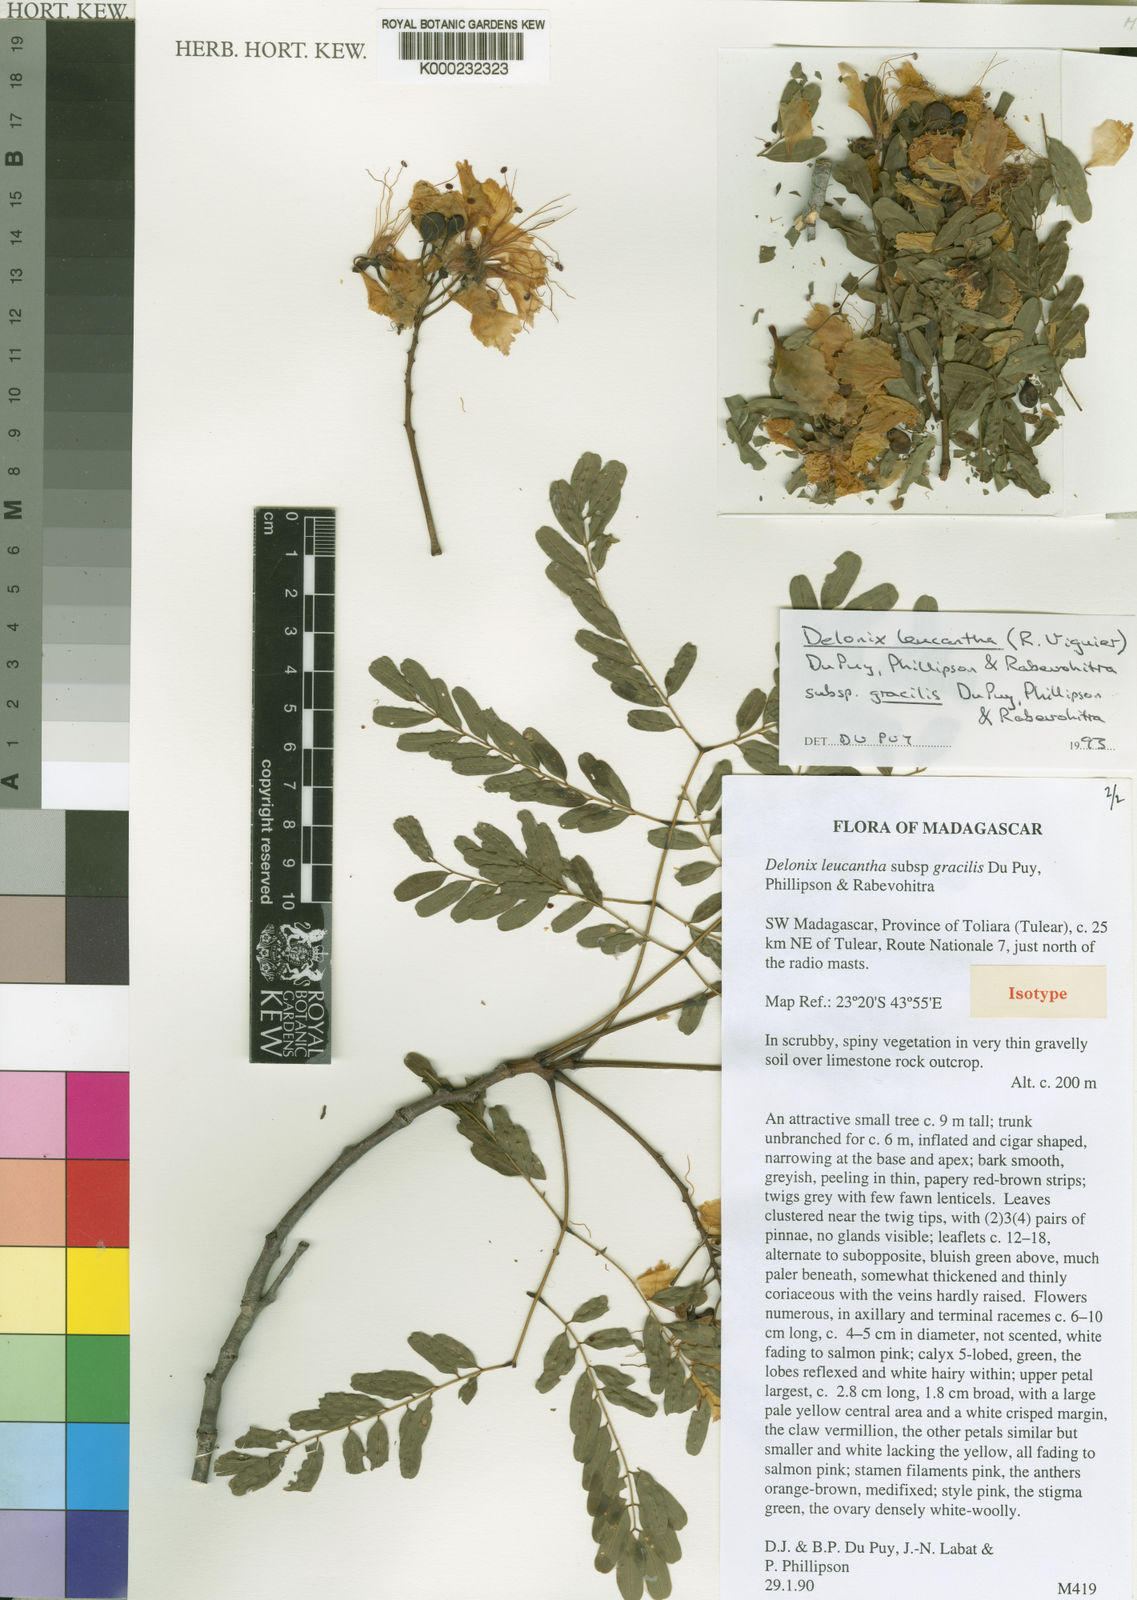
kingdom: Plantae
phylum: Tracheophyta
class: Magnoliopsida
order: Fabales
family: Fabaceae
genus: Delonix
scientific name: Delonix
